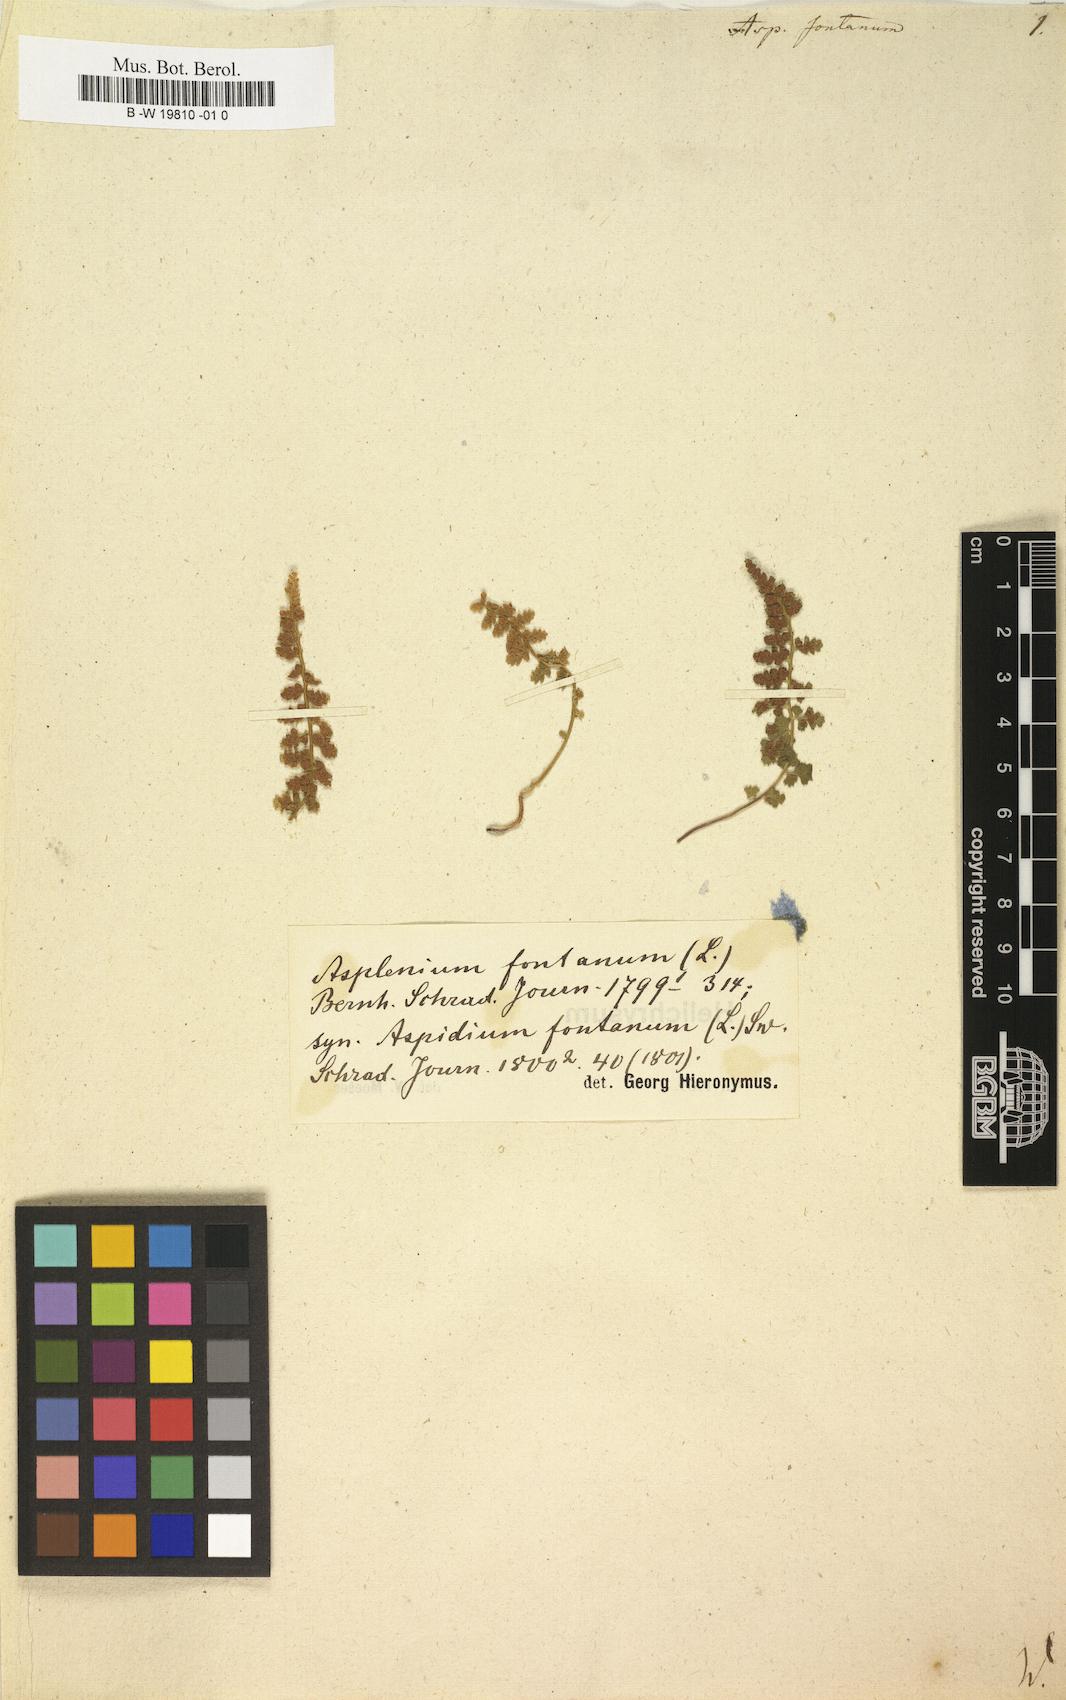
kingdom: Plantae
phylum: Tracheophyta
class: Polypodiopsida
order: Polypodiales
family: Aspleniaceae
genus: Asplenium
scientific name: Asplenium fontanum
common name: Fountain spleenwort
